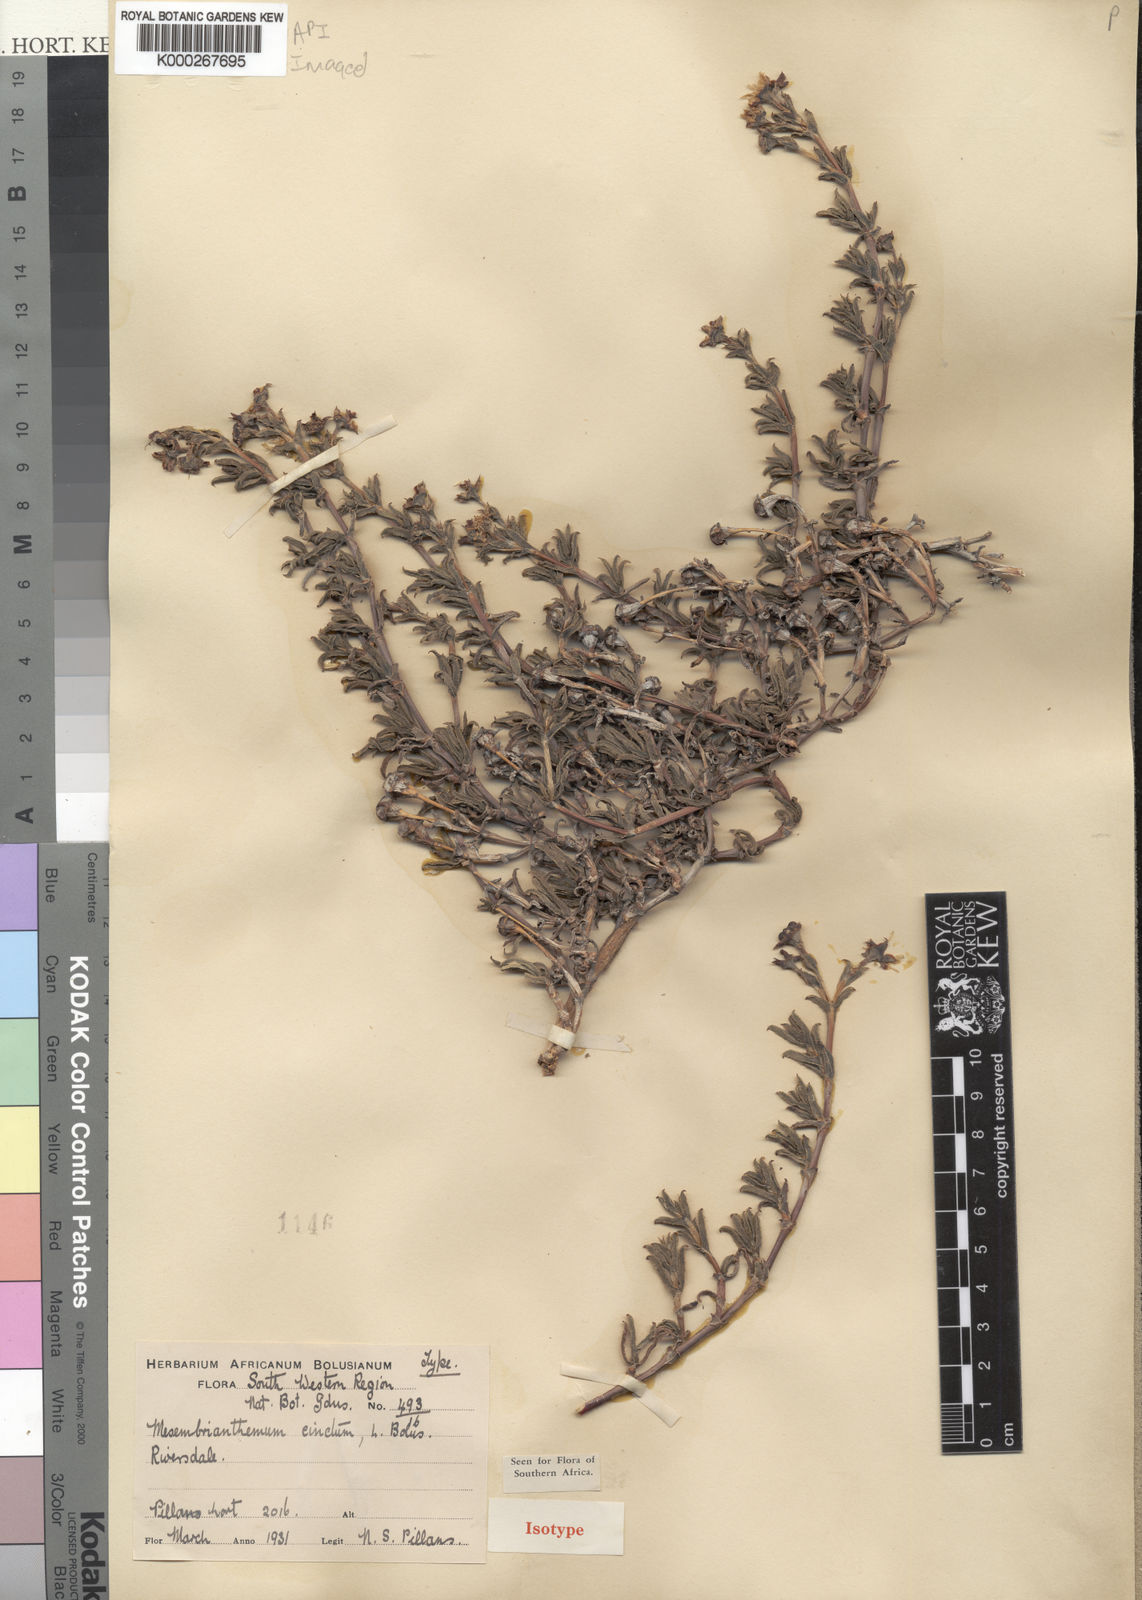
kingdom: Plantae
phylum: Tracheophyta
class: Magnoliopsida
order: Caryophyllales
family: Aizoaceae
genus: Ruschia
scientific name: Ruschia cincta
